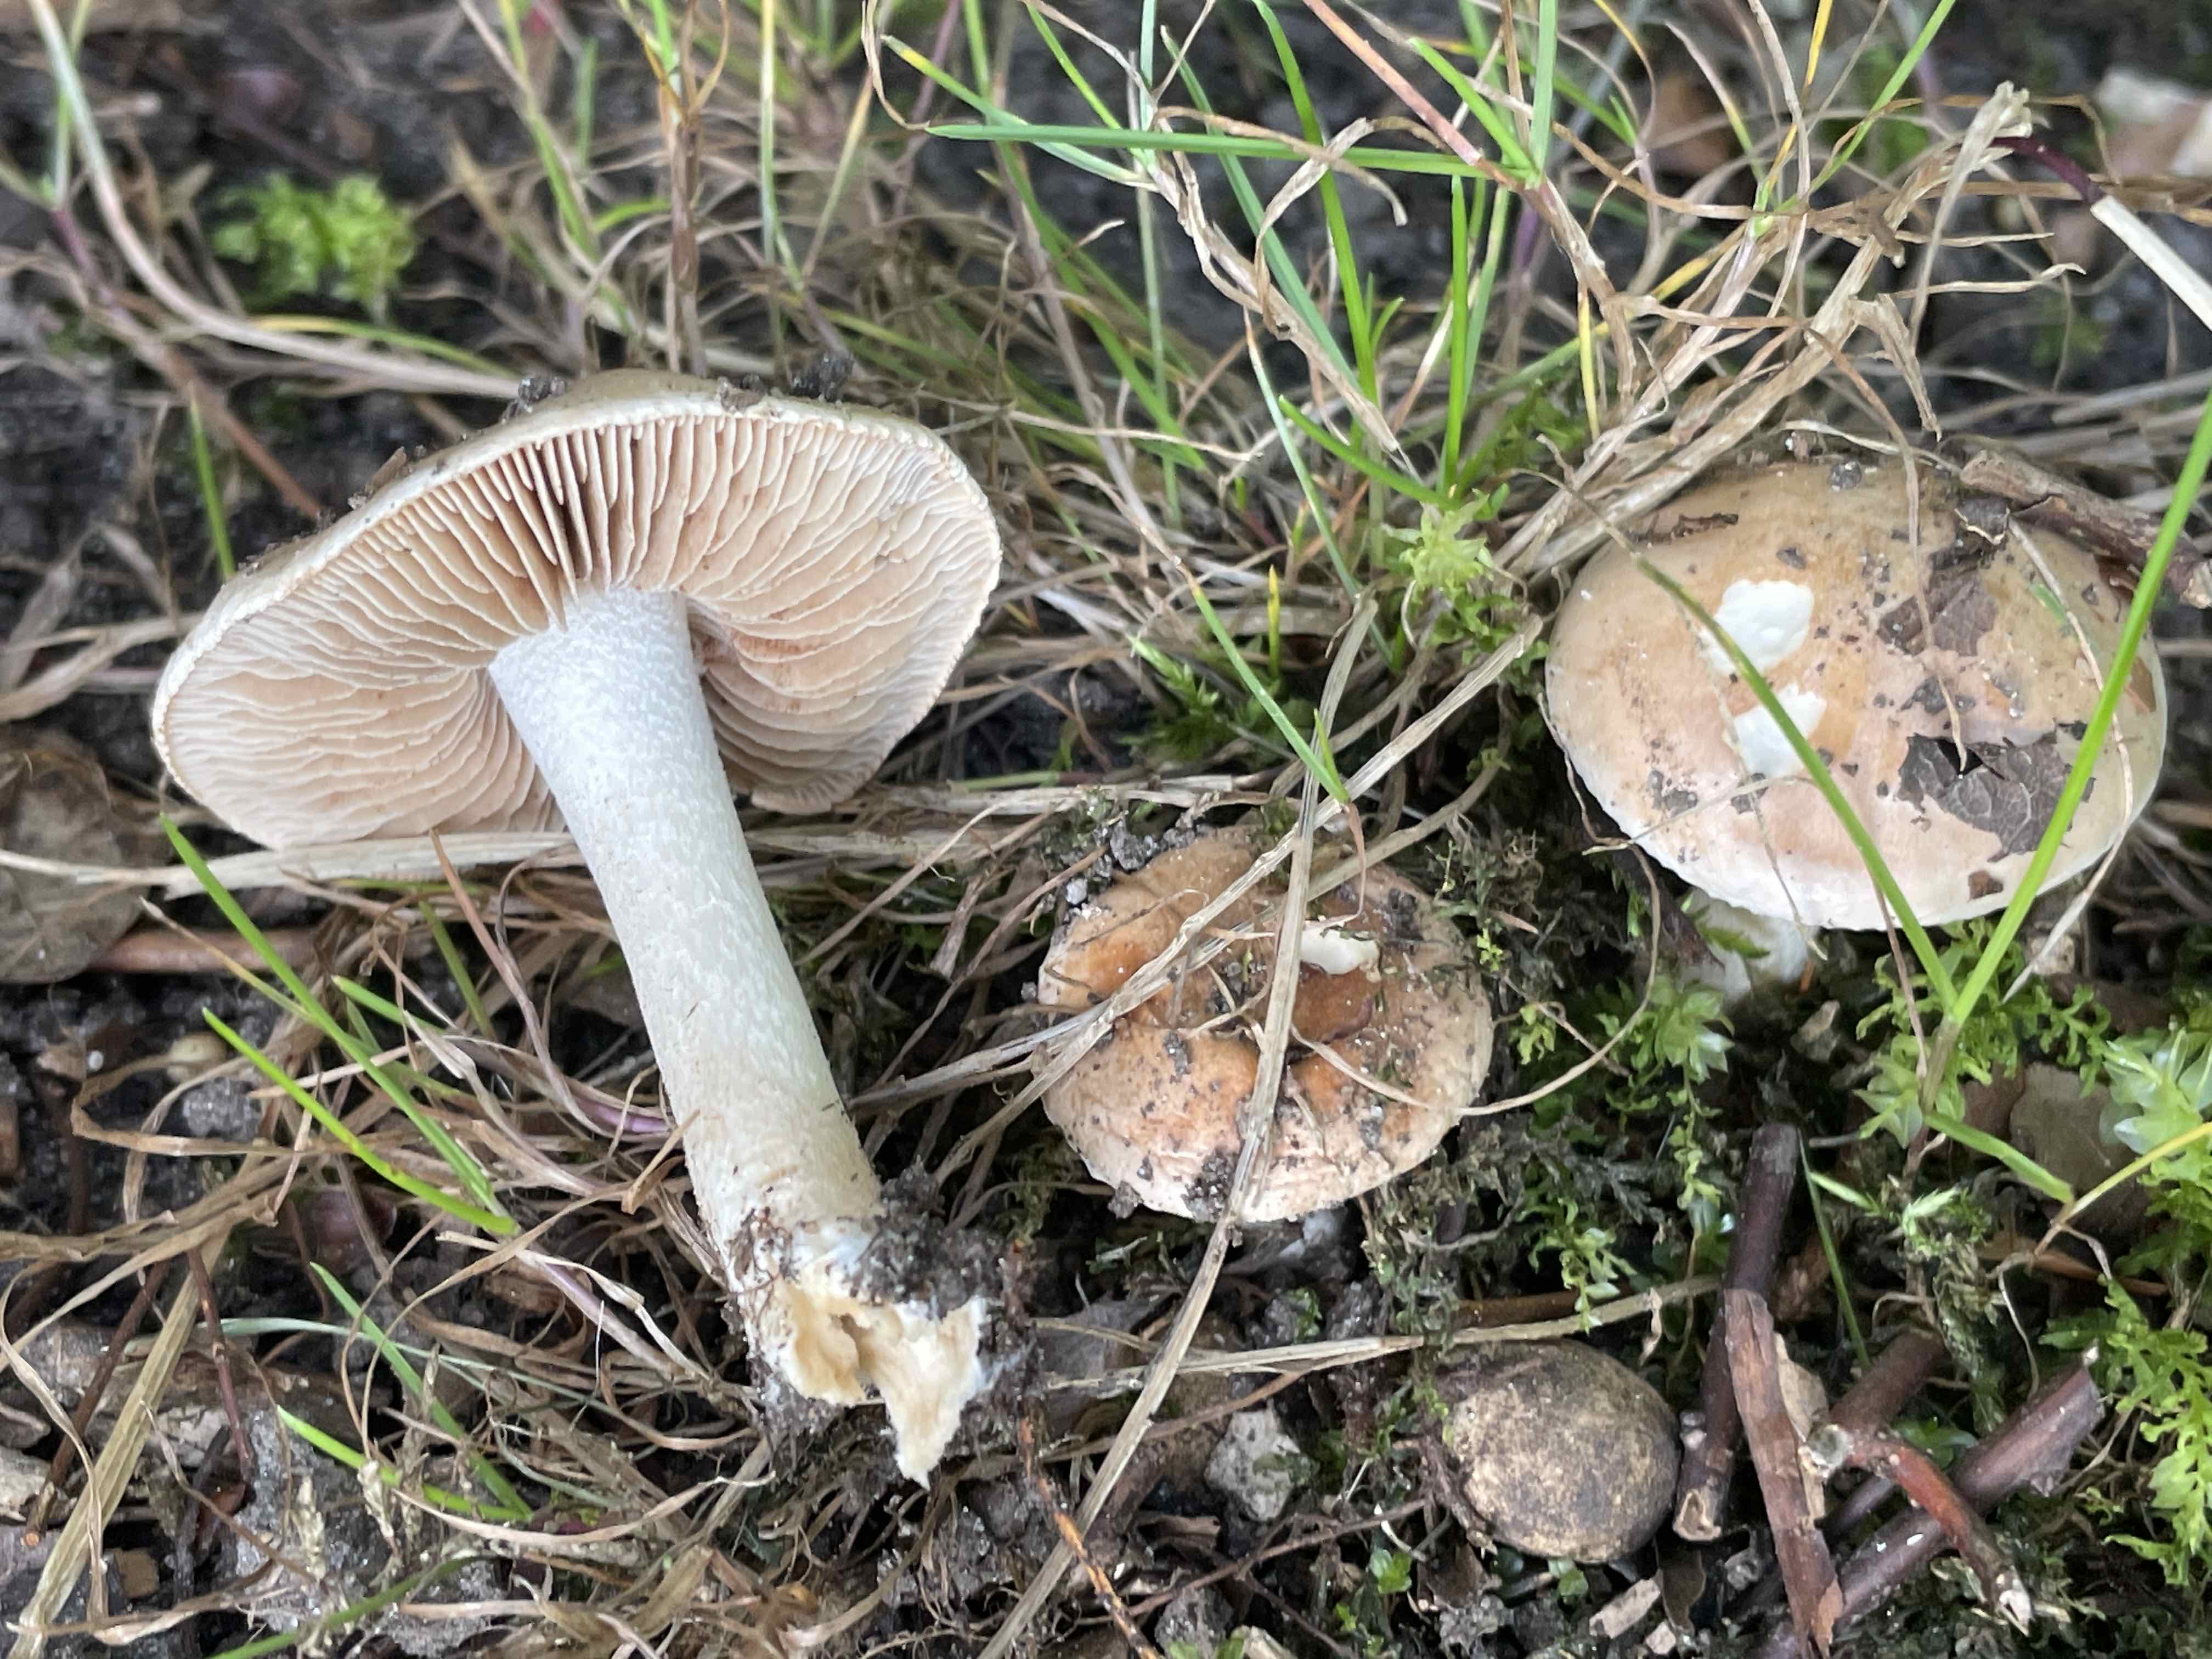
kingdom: Fungi
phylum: Basidiomycota
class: Agaricomycetes
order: Agaricales
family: Hymenogastraceae
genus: Hebeloma
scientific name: Hebeloma
